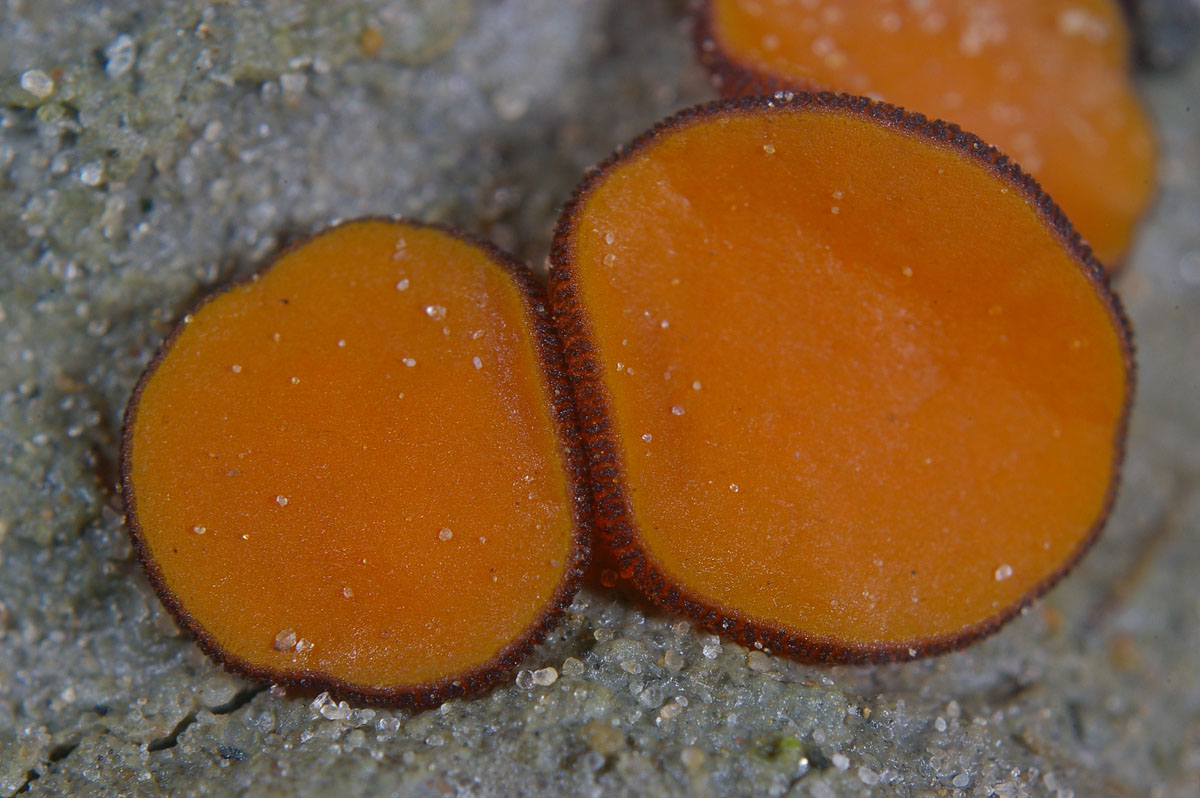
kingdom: Fungi
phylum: Ascomycota
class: Pezizomycetes
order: Pezizales
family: Pyronemataceae
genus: Melastiza
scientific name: Melastiza cornubiensis
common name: mørkrandet rødbæger
